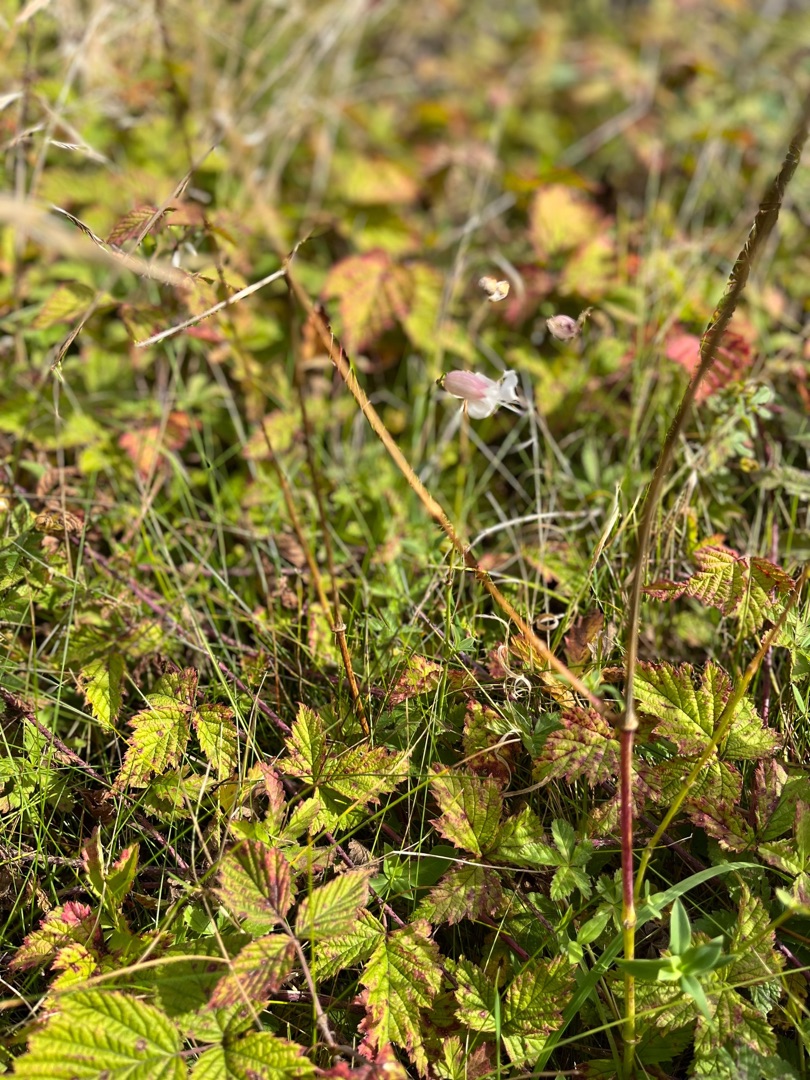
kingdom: Plantae
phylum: Tracheophyta
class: Magnoliopsida
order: Caryophyllales
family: Caryophyllaceae
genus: Silene
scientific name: Silene vulgaris
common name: Blæresmælde
